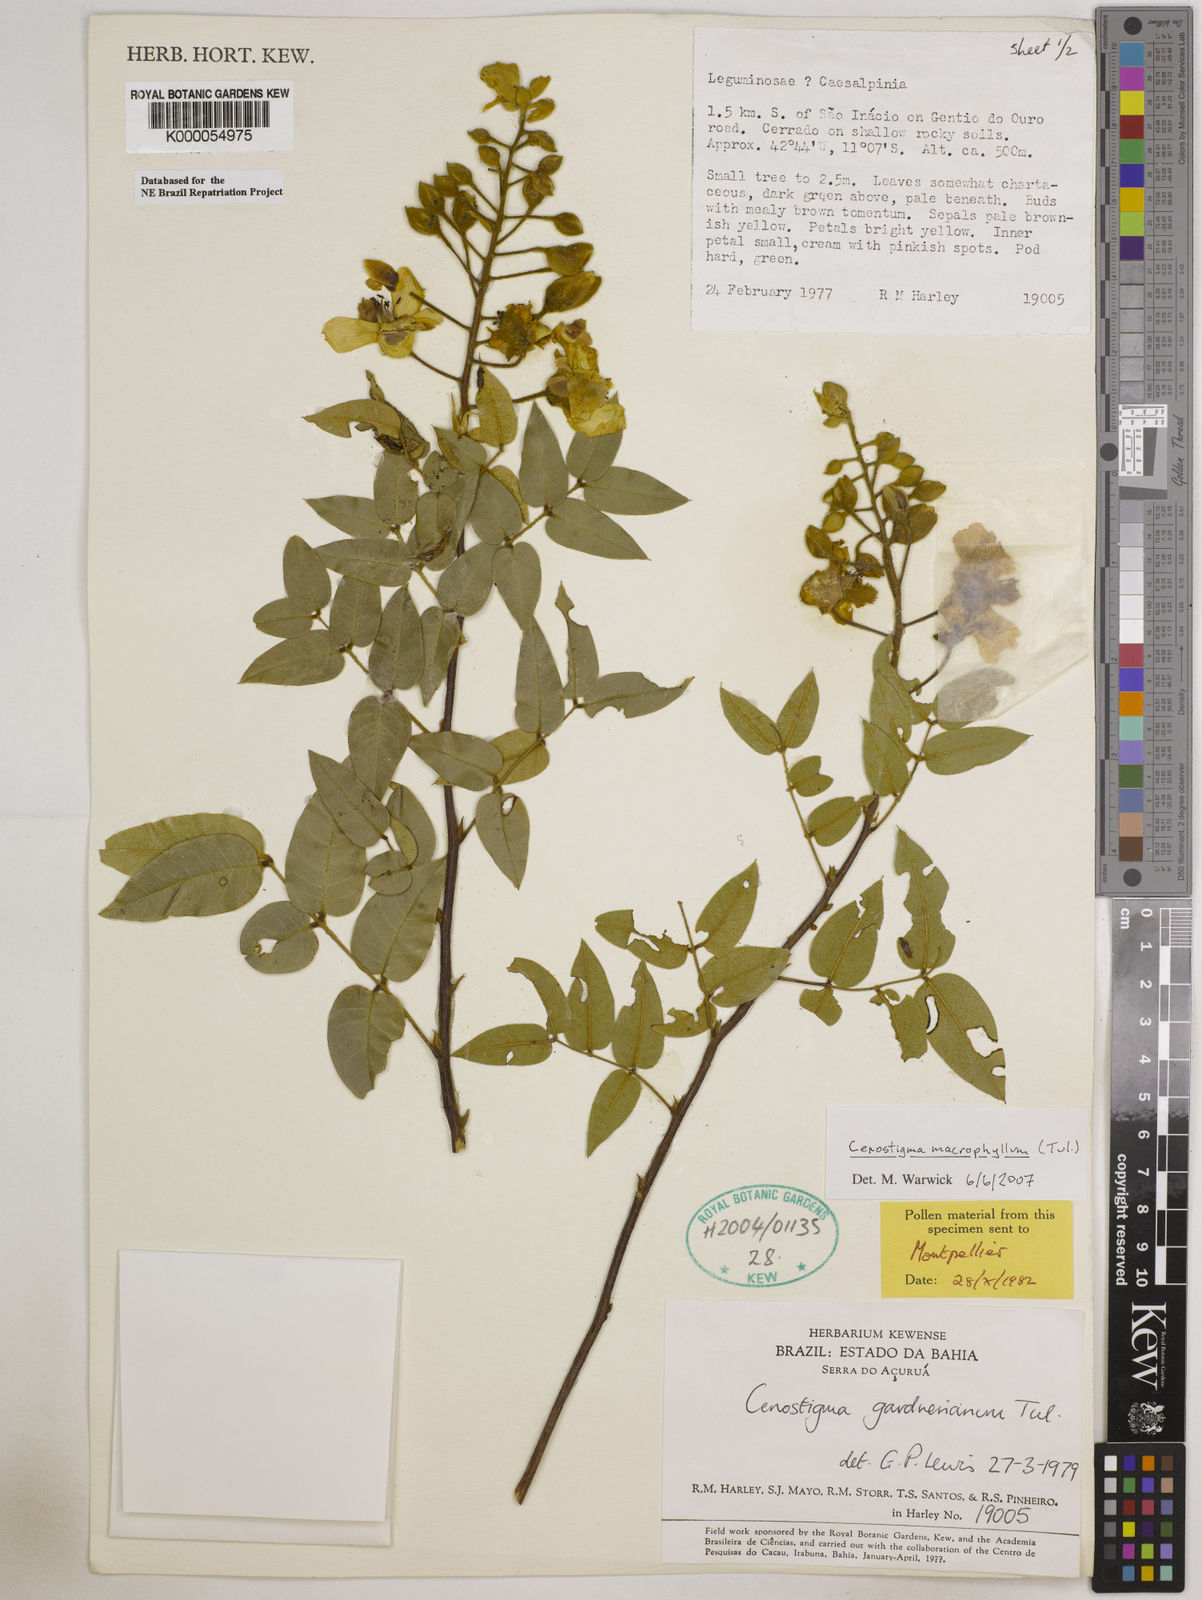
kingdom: Plantae
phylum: Tracheophyta
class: Magnoliopsida
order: Fabales
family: Fabaceae
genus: Cenostigma
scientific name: Cenostigma macrophyllum
